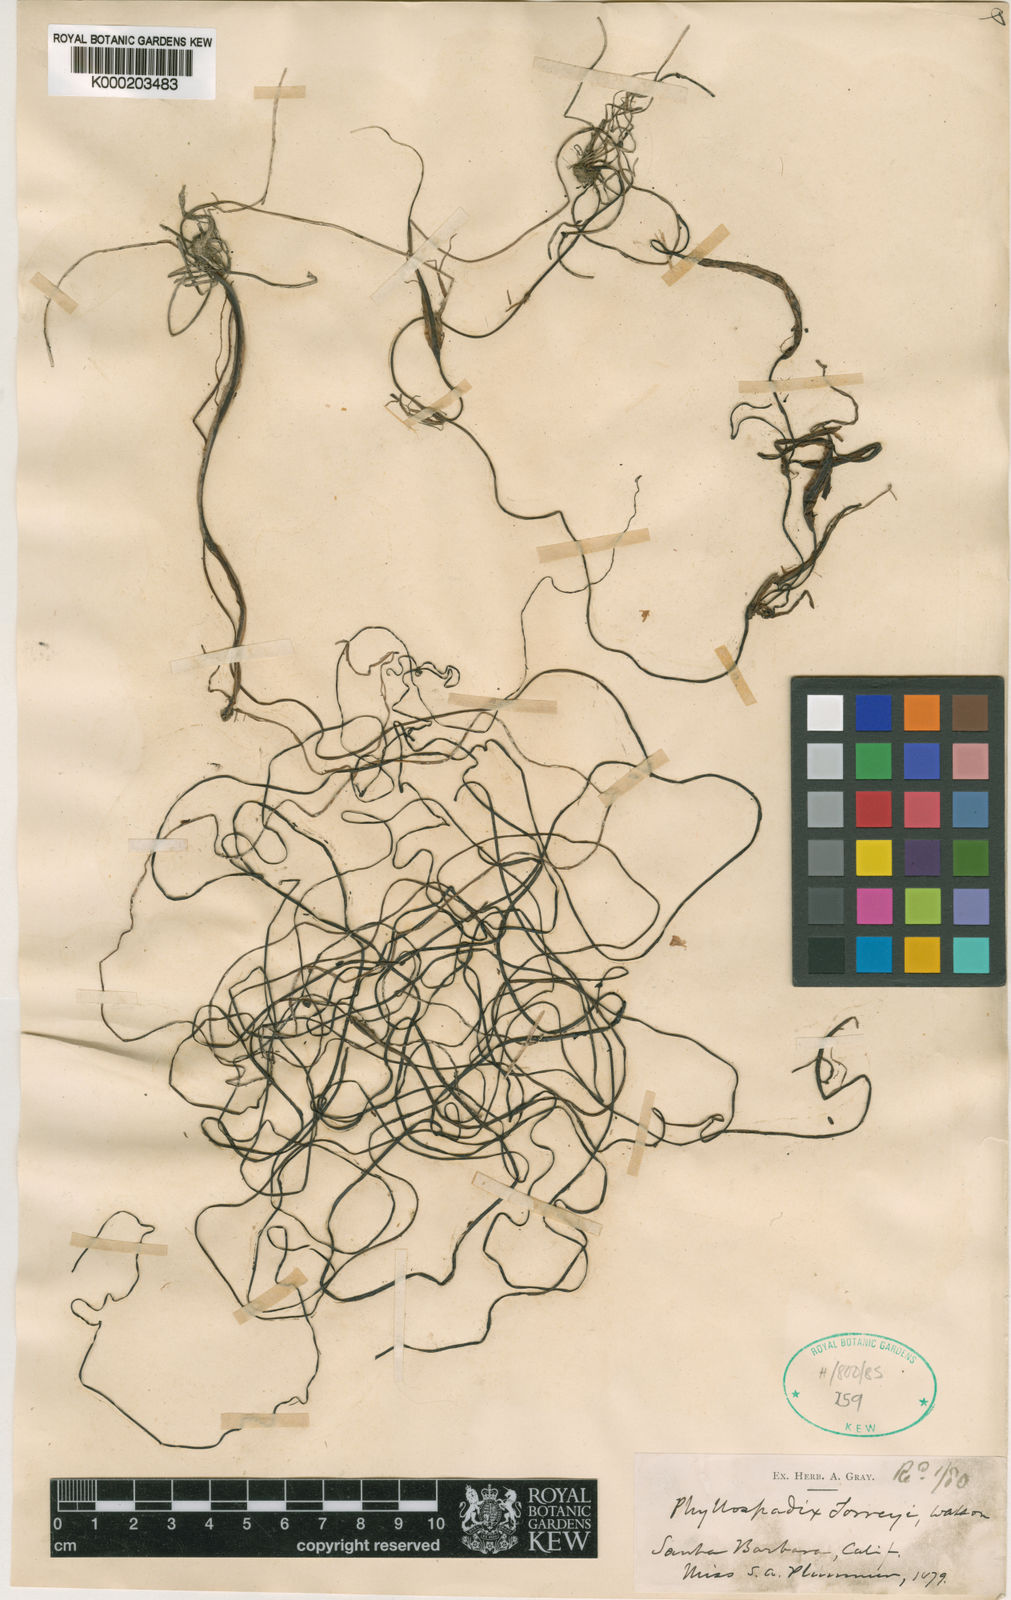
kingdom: Plantae
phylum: Tracheophyta
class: Liliopsida
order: Alismatales
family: Zosteraceae
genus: Phyllospadix
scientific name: Phyllospadix torreyi
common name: Surfgrass
